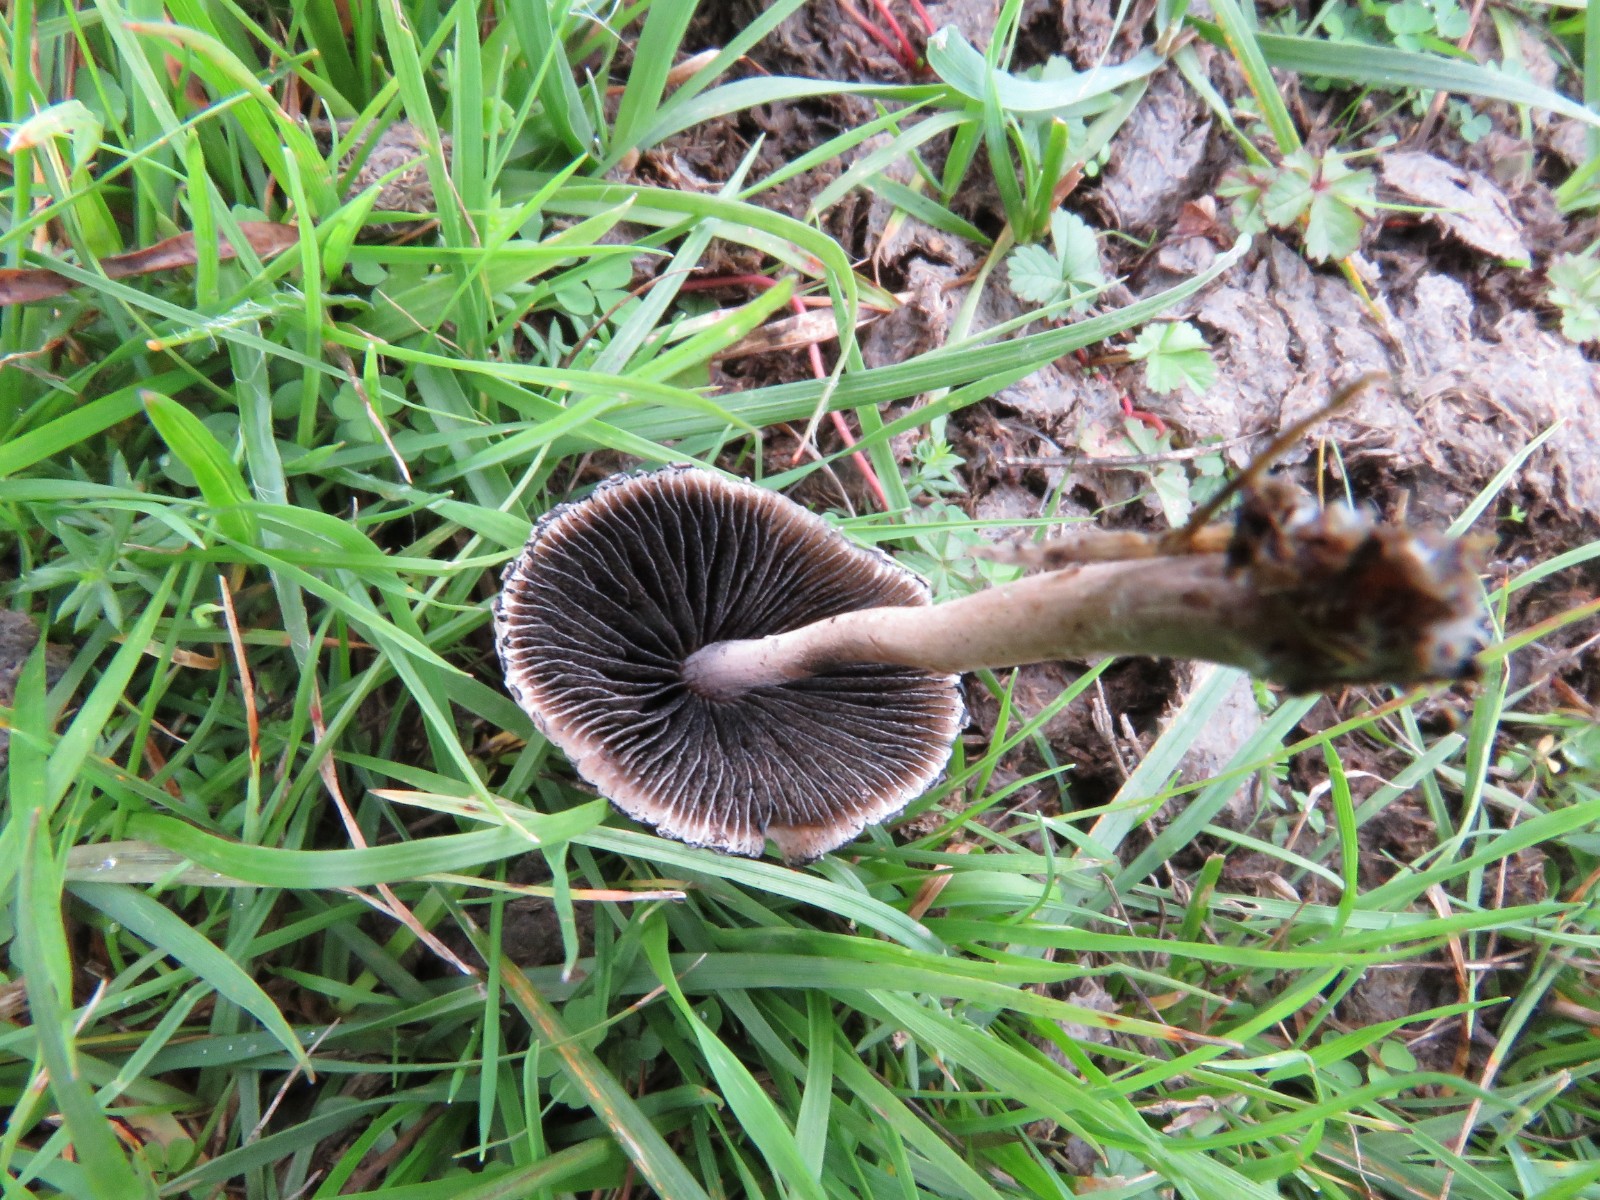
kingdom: Fungi
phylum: Basidiomycota
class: Agaricomycetes
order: Agaricales
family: Bolbitiaceae
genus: Panaeolus
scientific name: Panaeolus papilionaceus
